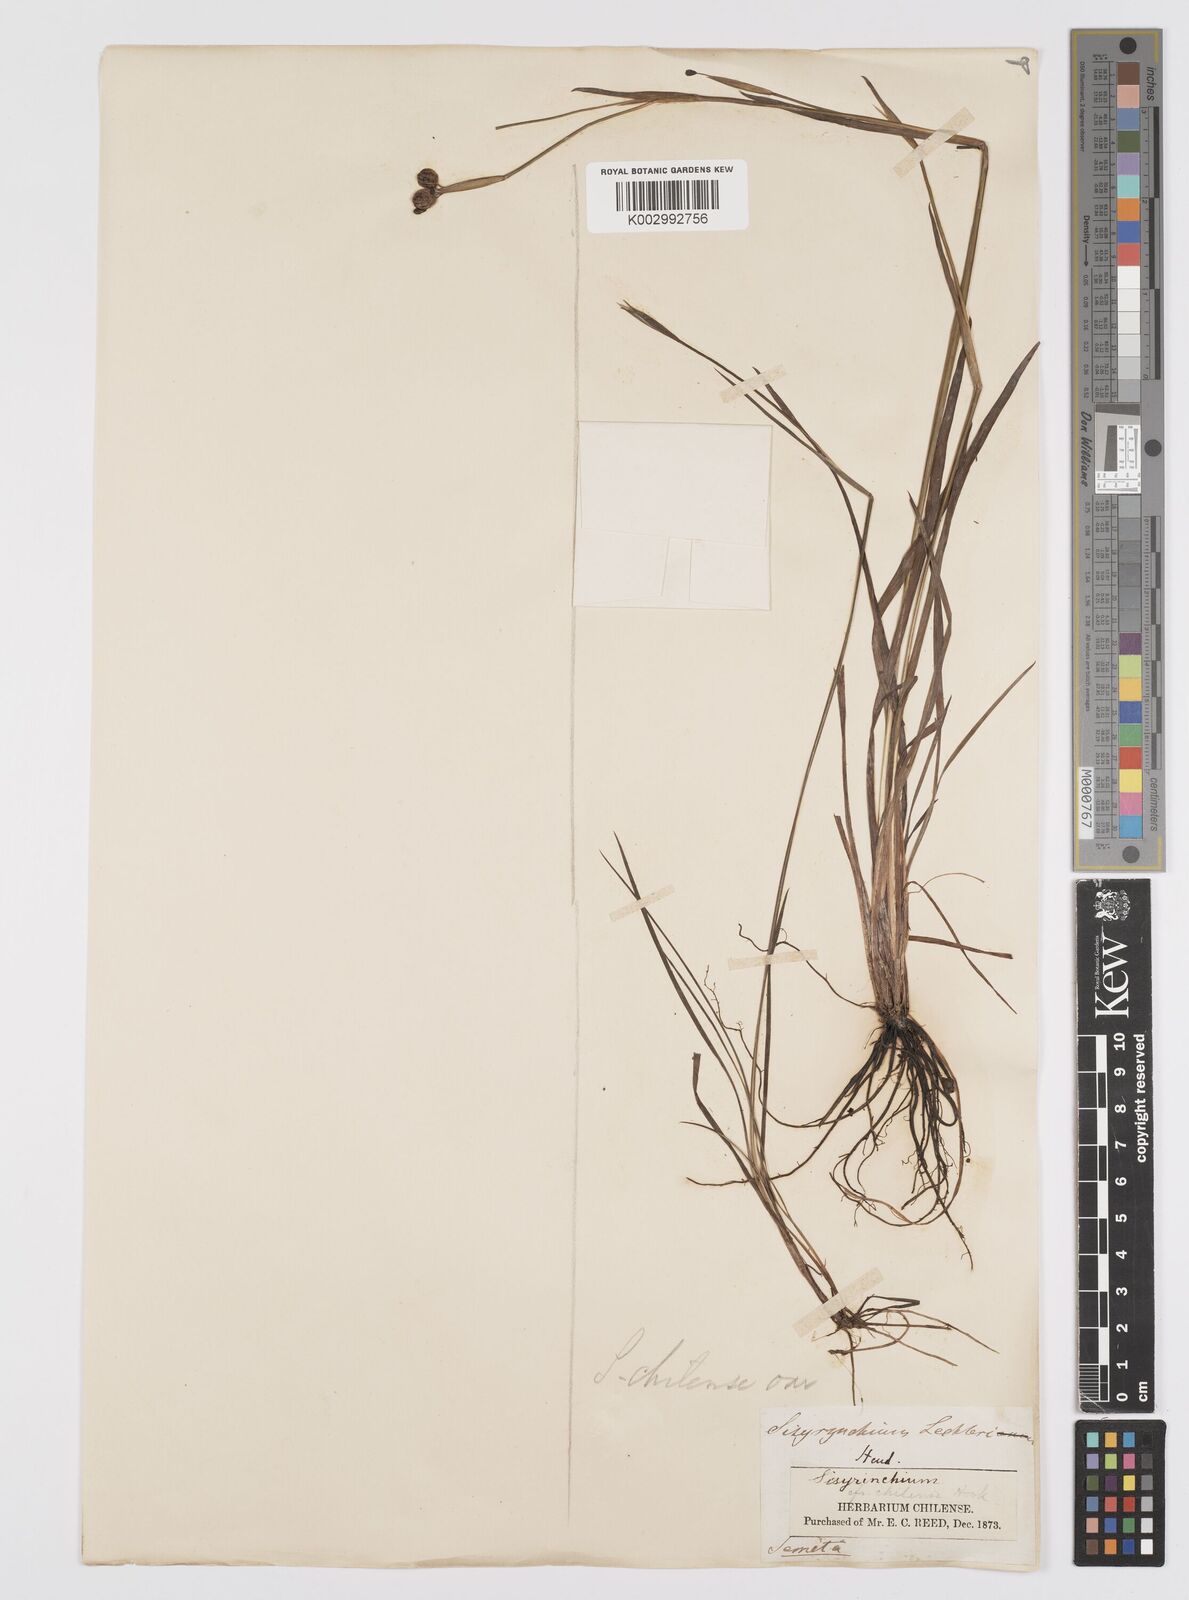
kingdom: Plantae
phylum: Tracheophyta
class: Liliopsida
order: Asparagales
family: Iridaceae
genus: Sisyrinchium
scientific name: Sisyrinchium chilense
